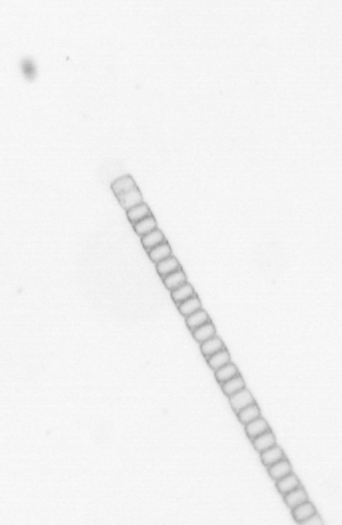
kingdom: Chromista
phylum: Ochrophyta
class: Bacillariophyceae
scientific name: Bacillariophyceae
